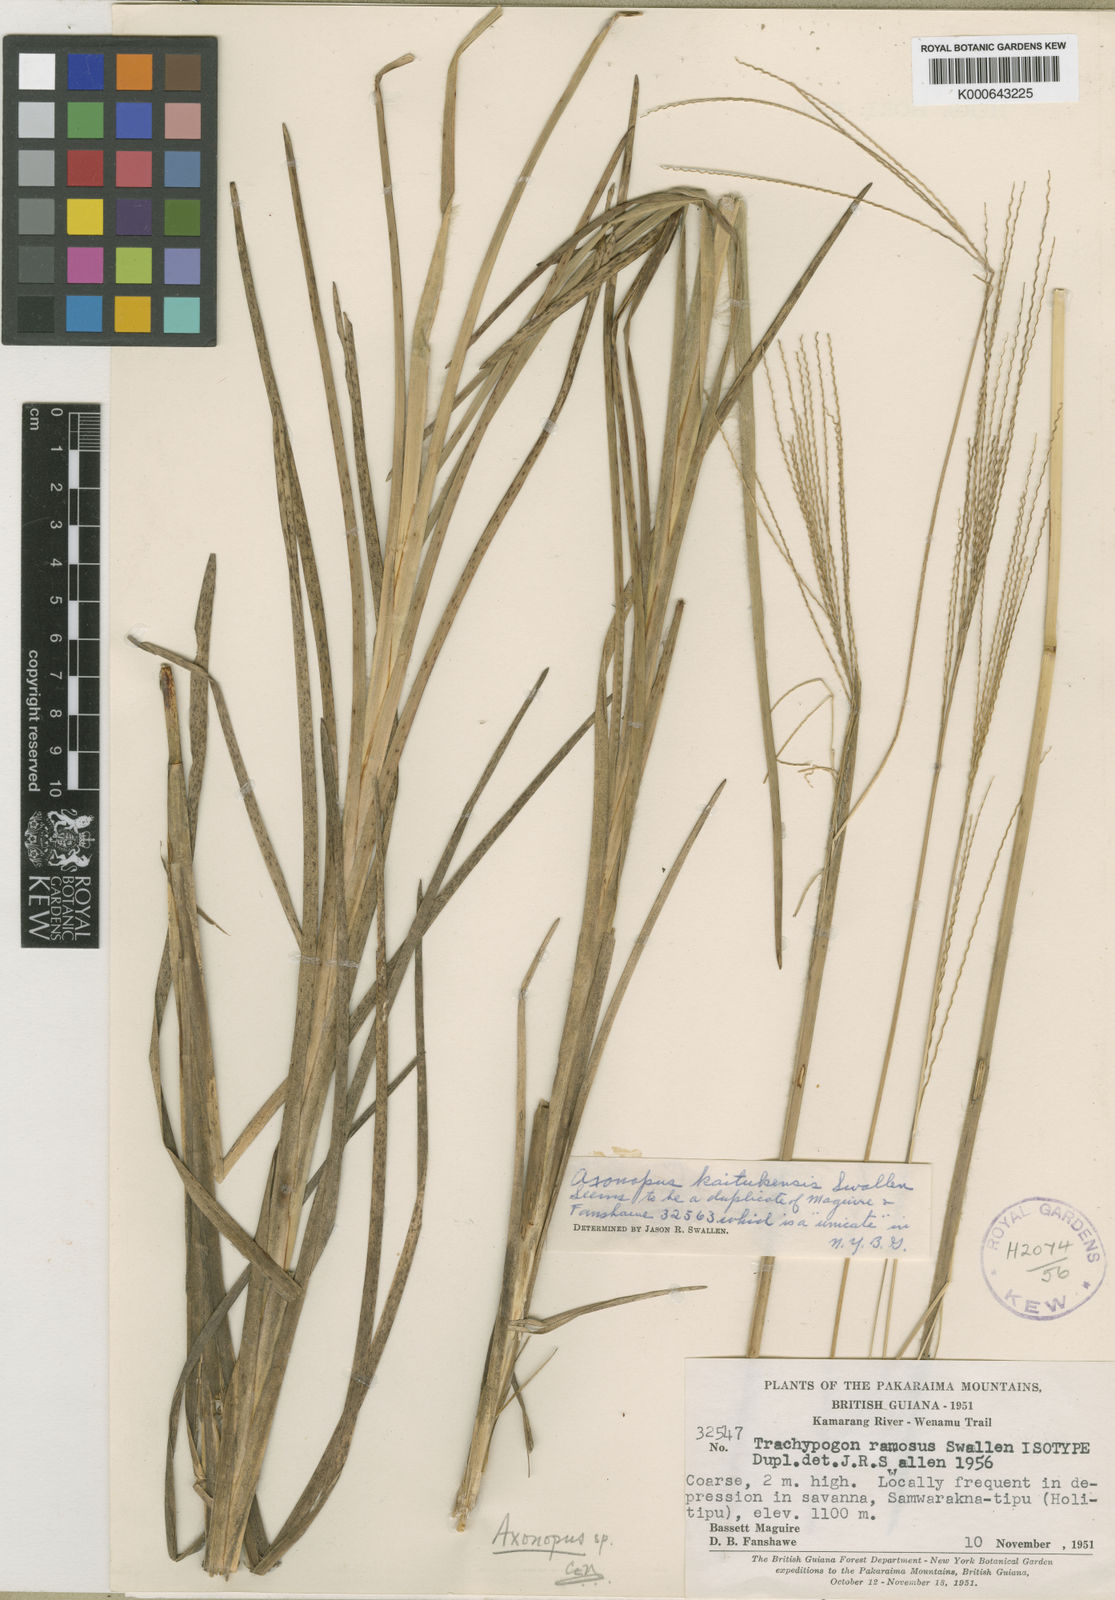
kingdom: Plantae
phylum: Tracheophyta
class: Liliopsida
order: Poales
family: Poaceae
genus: Axonopus
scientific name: Axonopus flabelliformis
